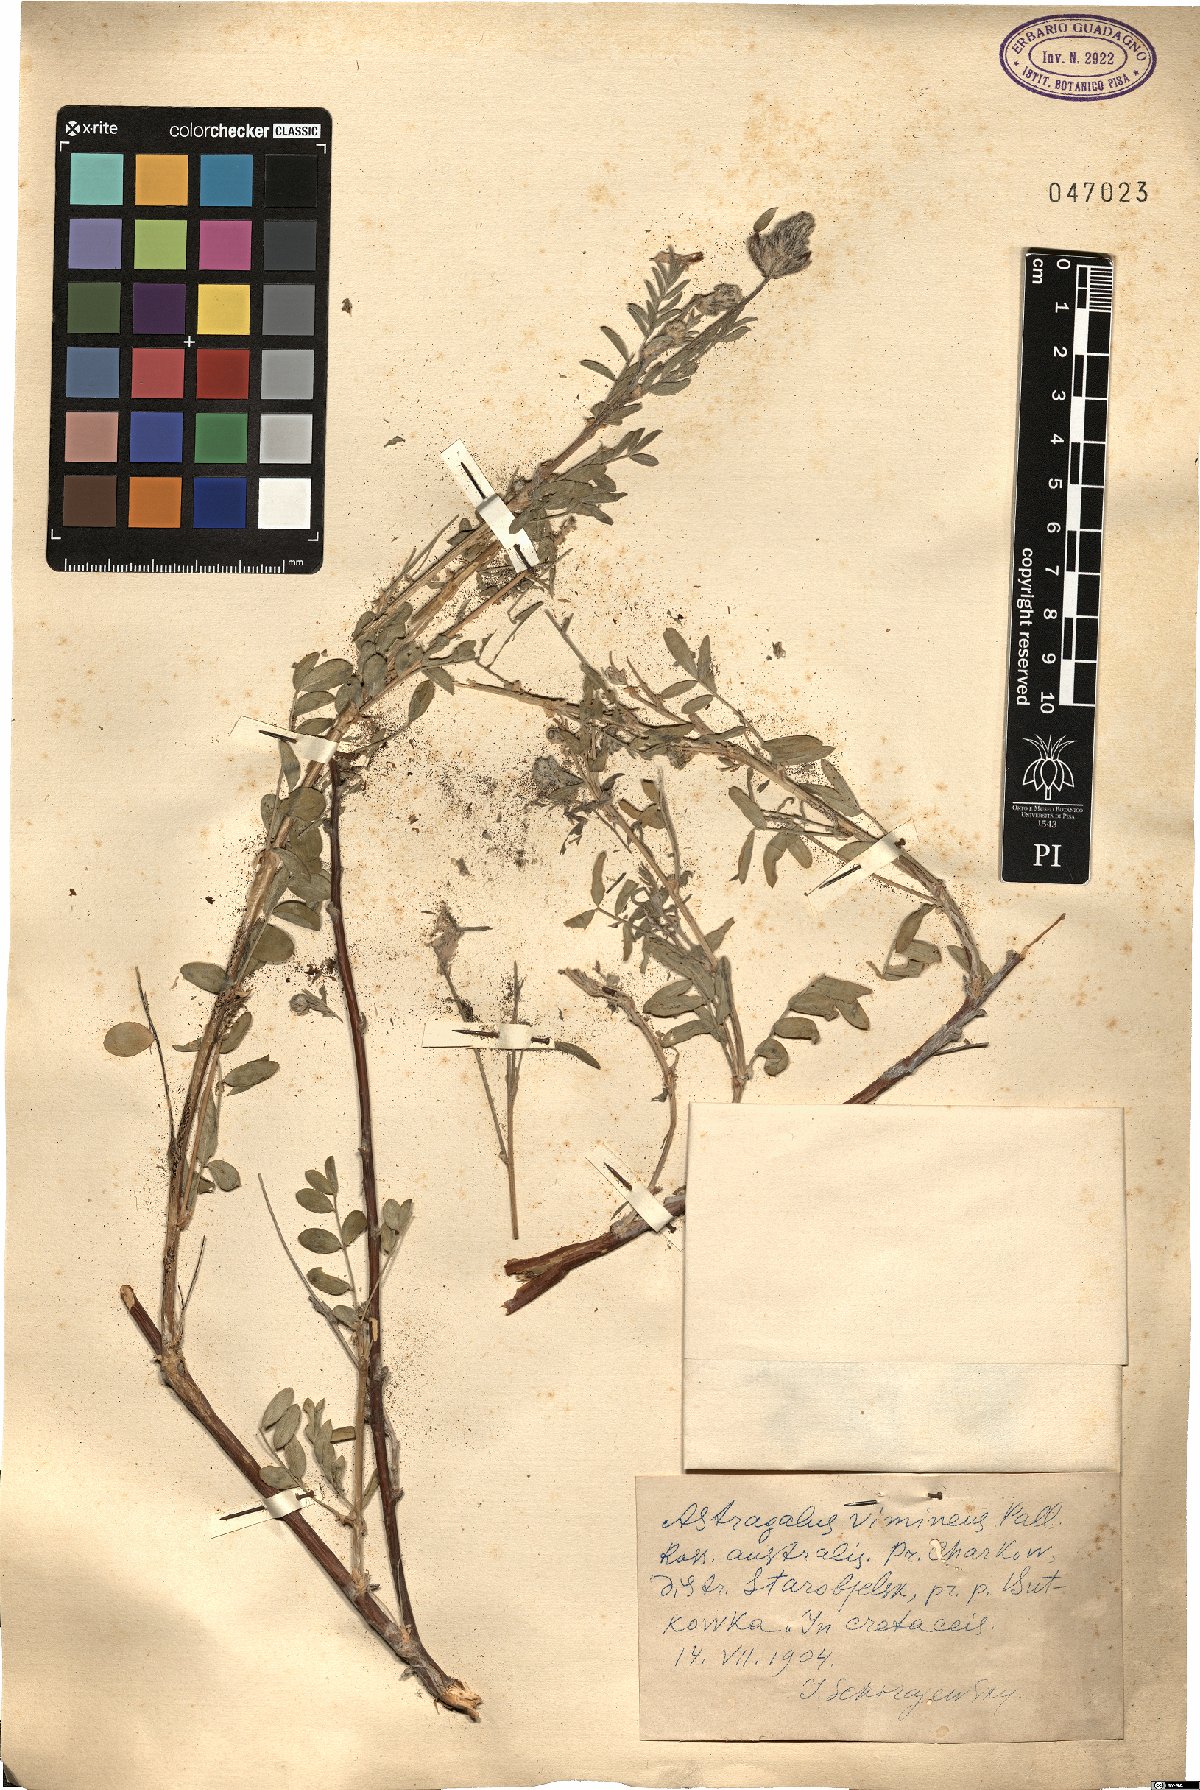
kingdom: Plantae
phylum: Tracheophyta
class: Magnoliopsida
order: Fabales
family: Fabaceae
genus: Astragalus
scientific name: Astragalus cornutus
